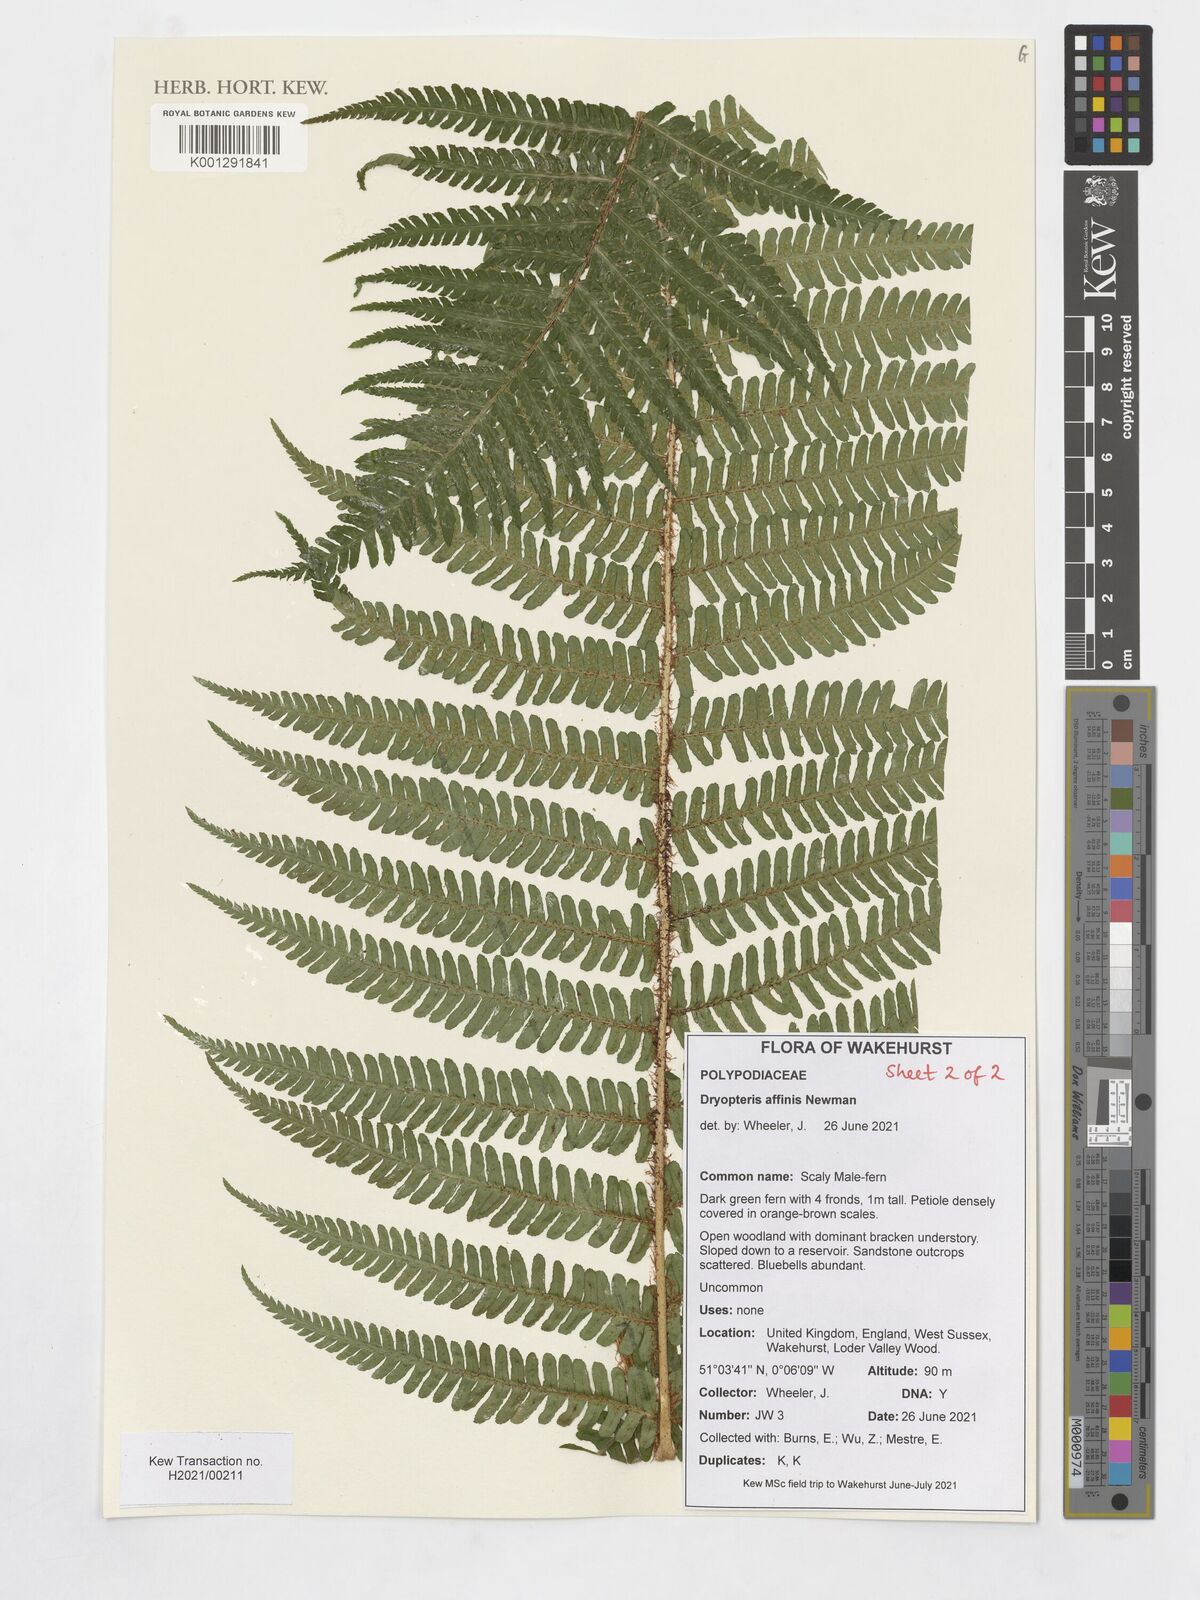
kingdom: Plantae
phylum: Tracheophyta
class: Polypodiopsida
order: Polypodiales
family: Dryopteridaceae
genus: Dryopteris
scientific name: Dryopteris caucasica
